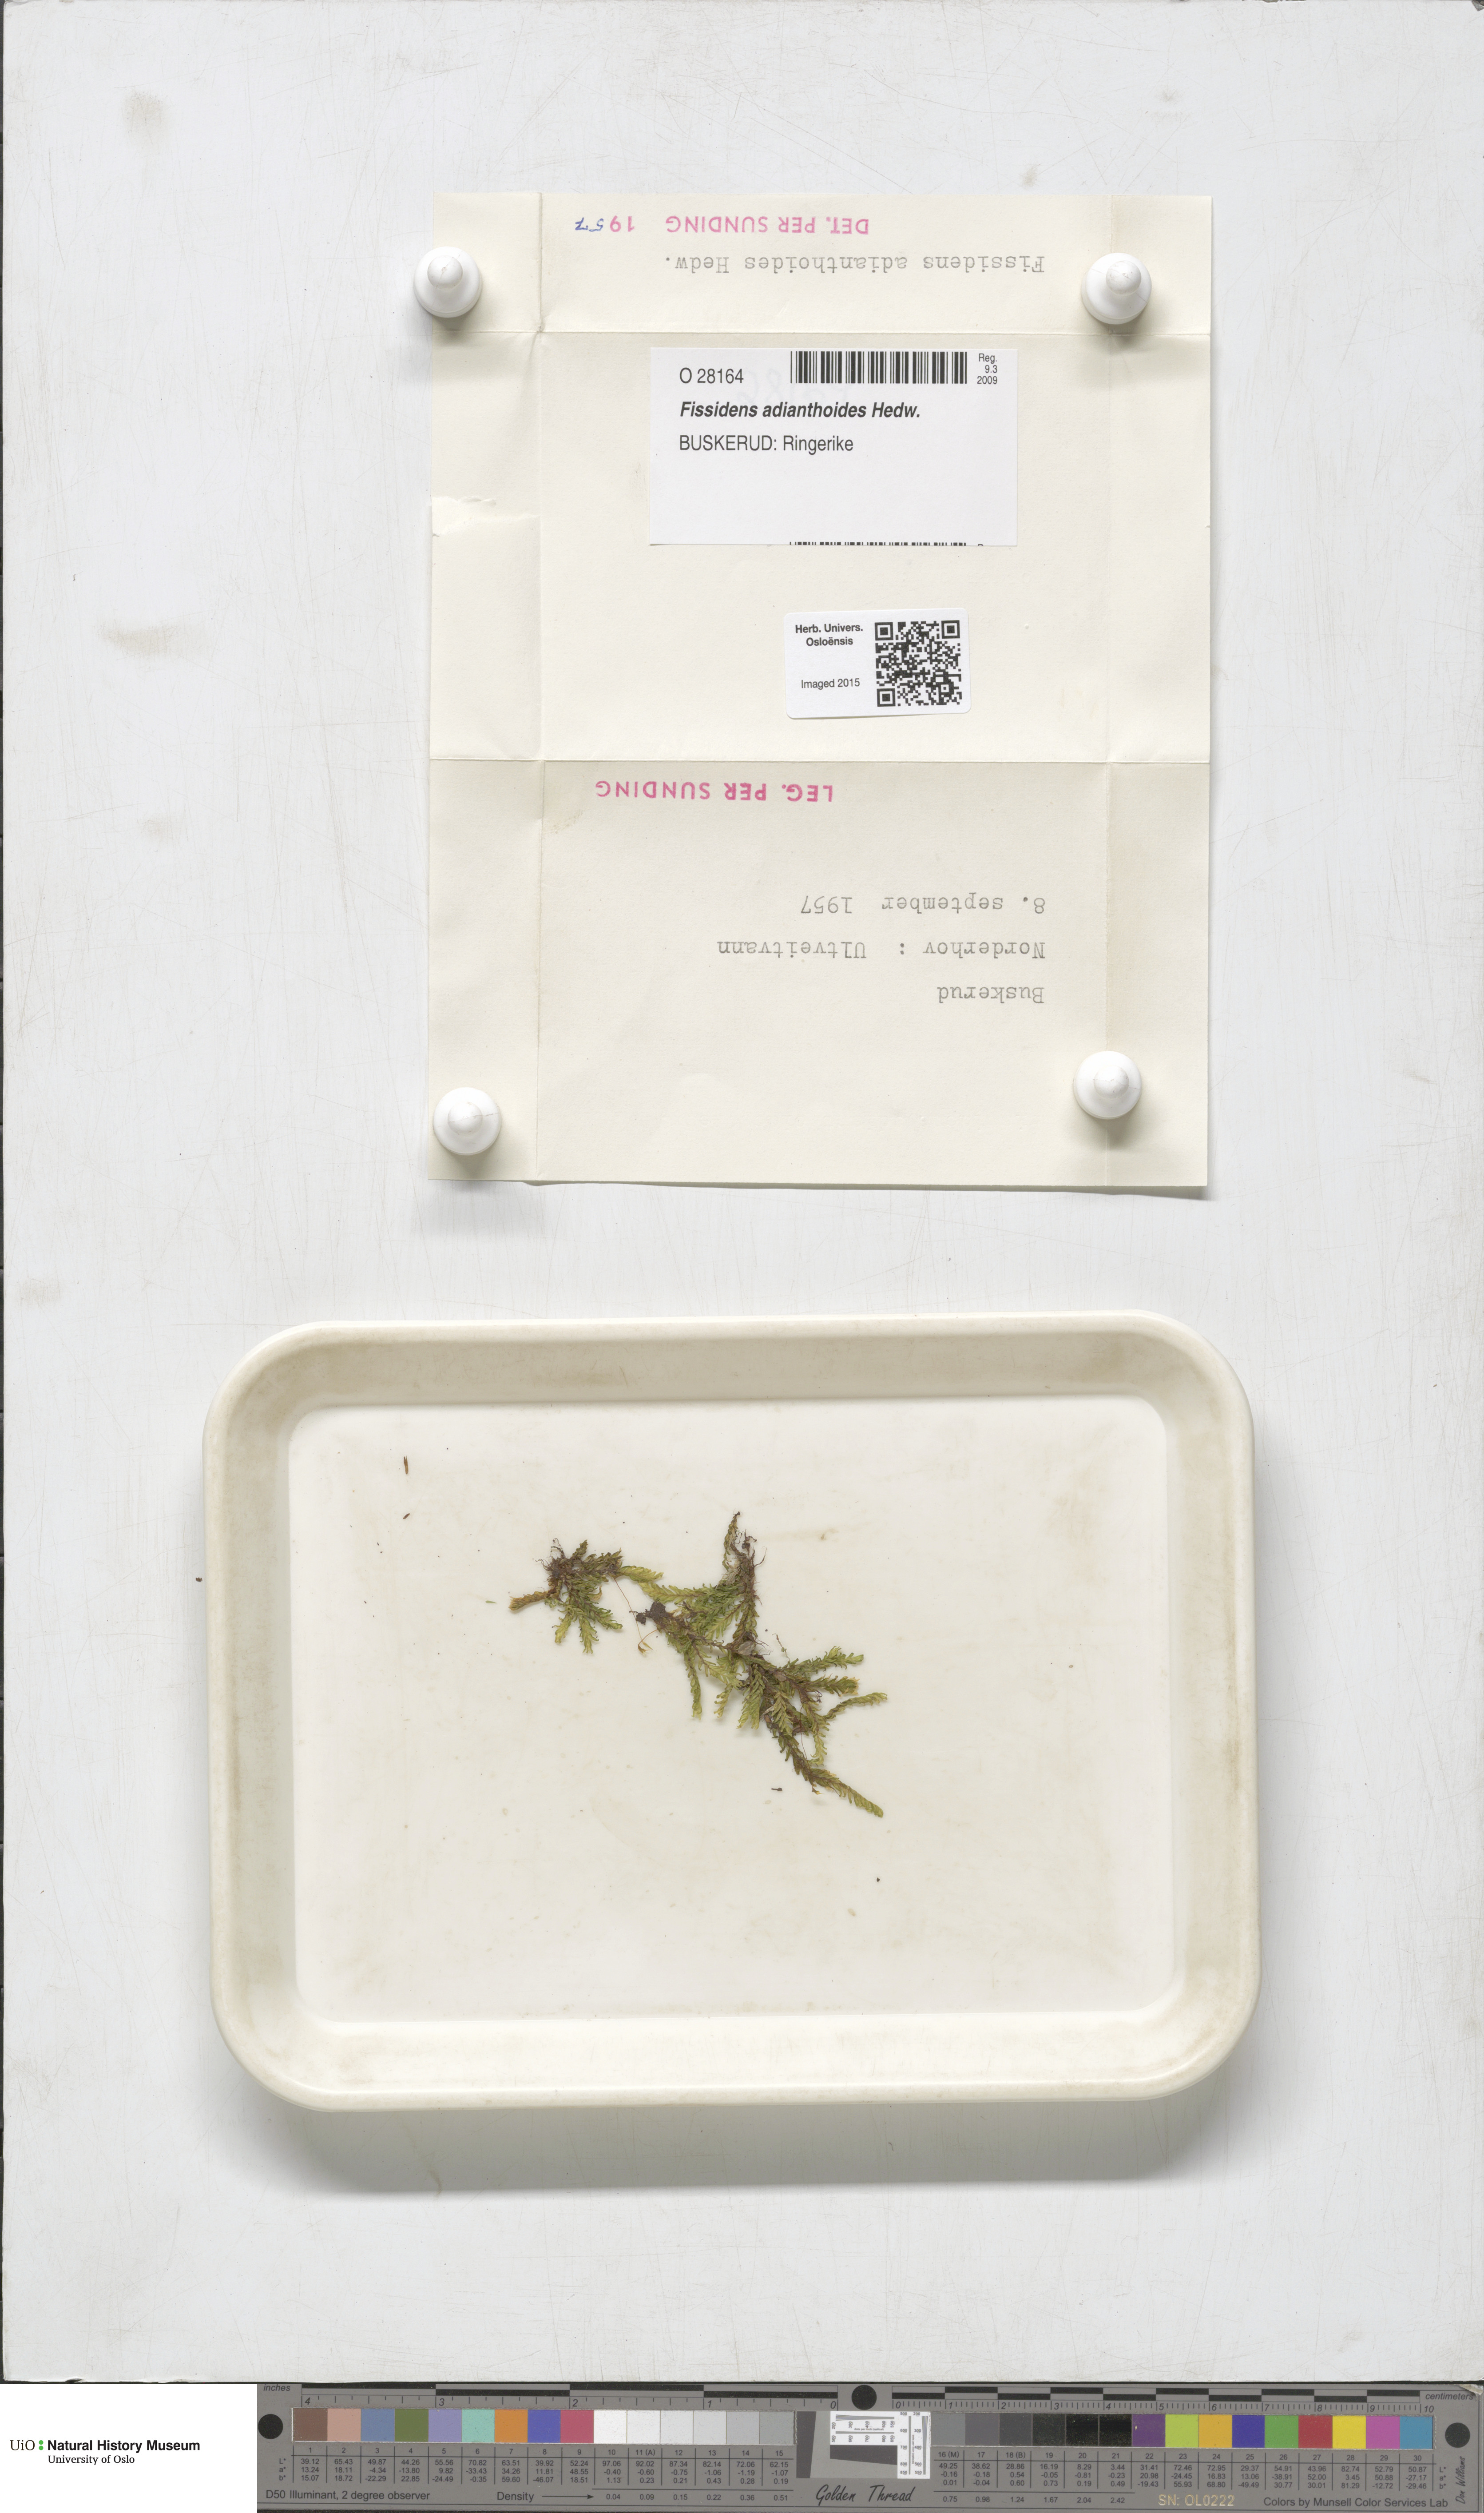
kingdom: Plantae
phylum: Bryophyta
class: Bryopsida
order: Dicranales
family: Fissidentaceae
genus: Fissidens
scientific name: Fissidens adianthoides
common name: Maidenhair pocket moss
